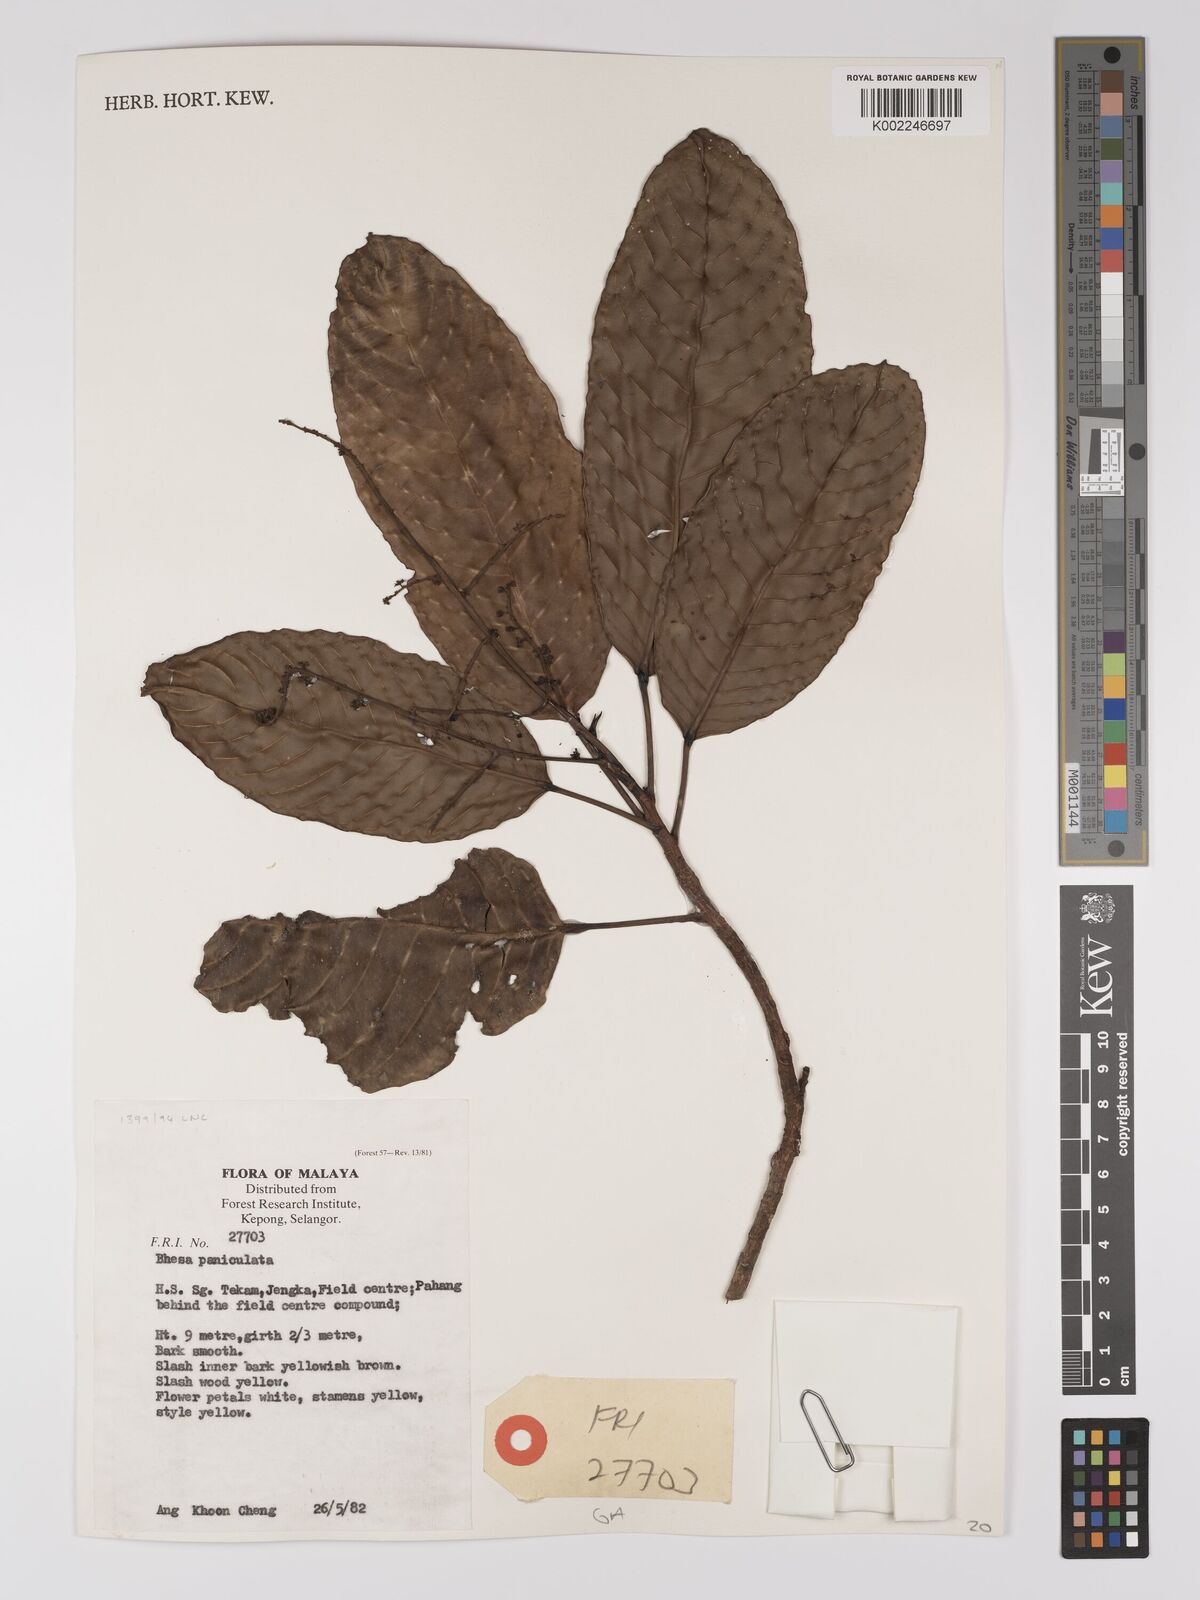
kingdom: Plantae
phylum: Tracheophyta
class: Magnoliopsida
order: Malpighiales
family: Centroplacaceae
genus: Bhesa
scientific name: Bhesa paniculata
